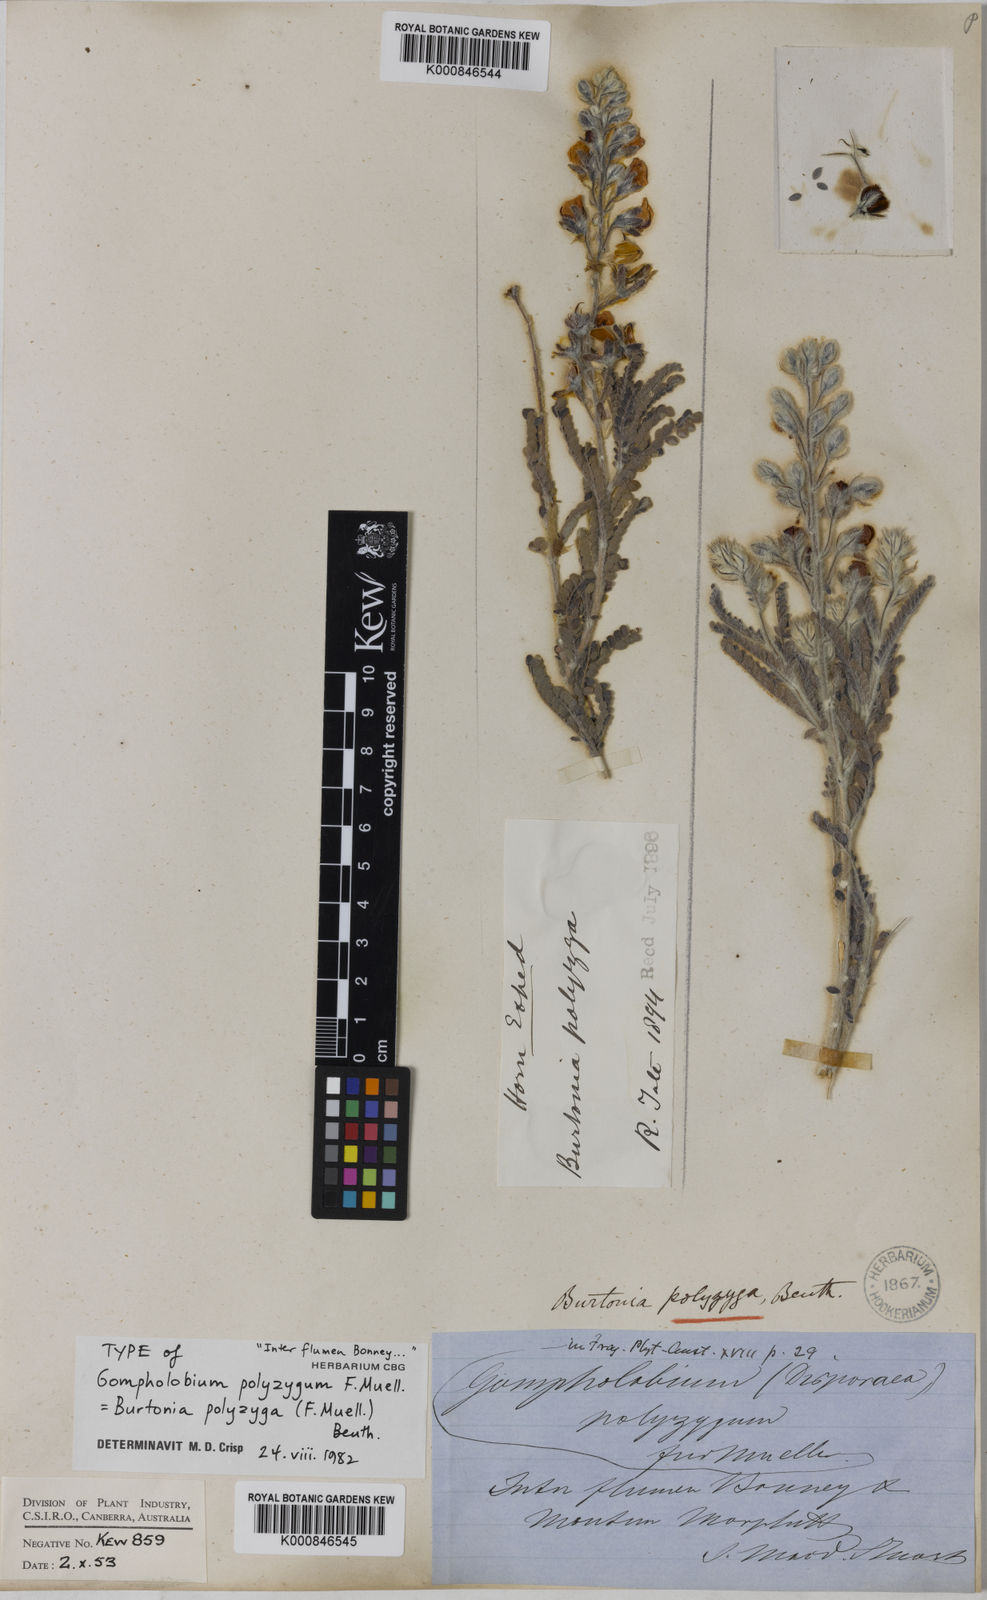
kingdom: Plantae
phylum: Tracheophyta
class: Magnoliopsida
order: Fabales
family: Fabaceae
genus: Gompholobium
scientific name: Gompholobium polyzygum
